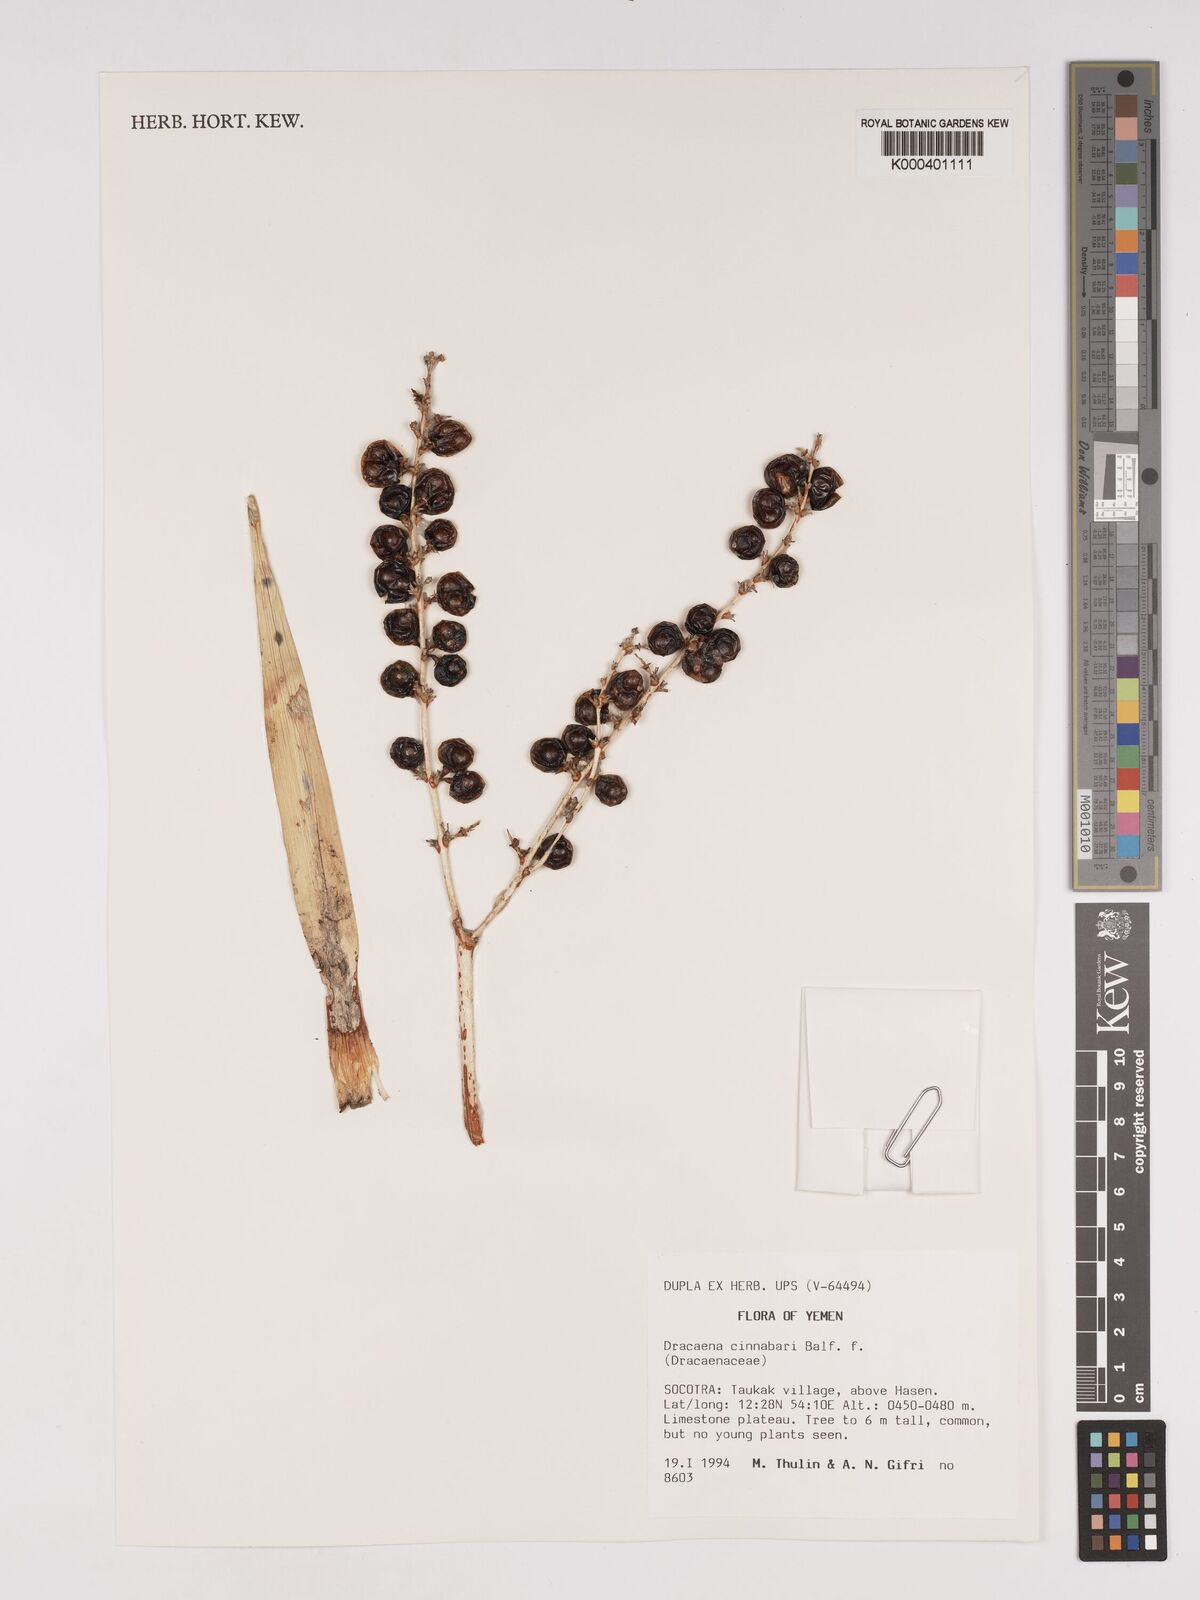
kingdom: Plantae
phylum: Tracheophyta
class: Liliopsida
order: Asparagales
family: Asparagaceae
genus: Dracaena
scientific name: Dracaena cinnabari
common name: Dragon's blood tree
